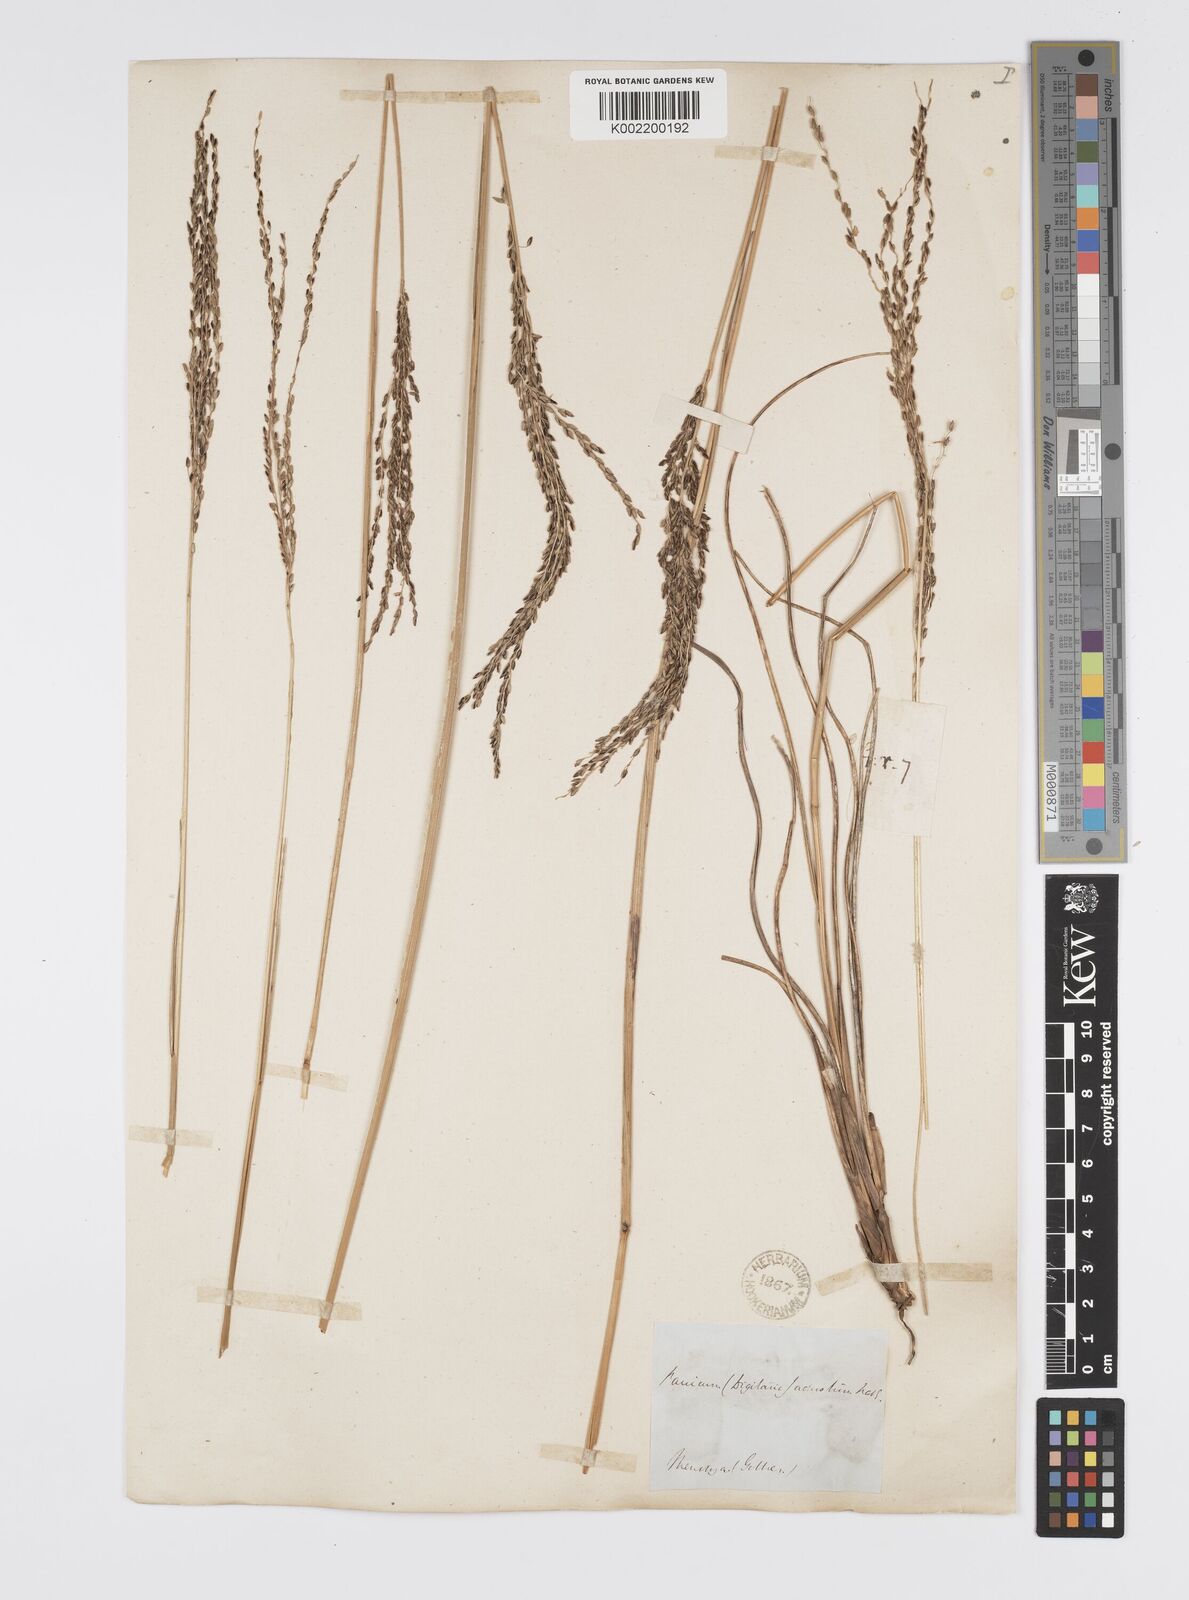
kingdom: Plantae
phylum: Tracheophyta
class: Liliopsida
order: Poales
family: Poaceae
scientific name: Poaceae
